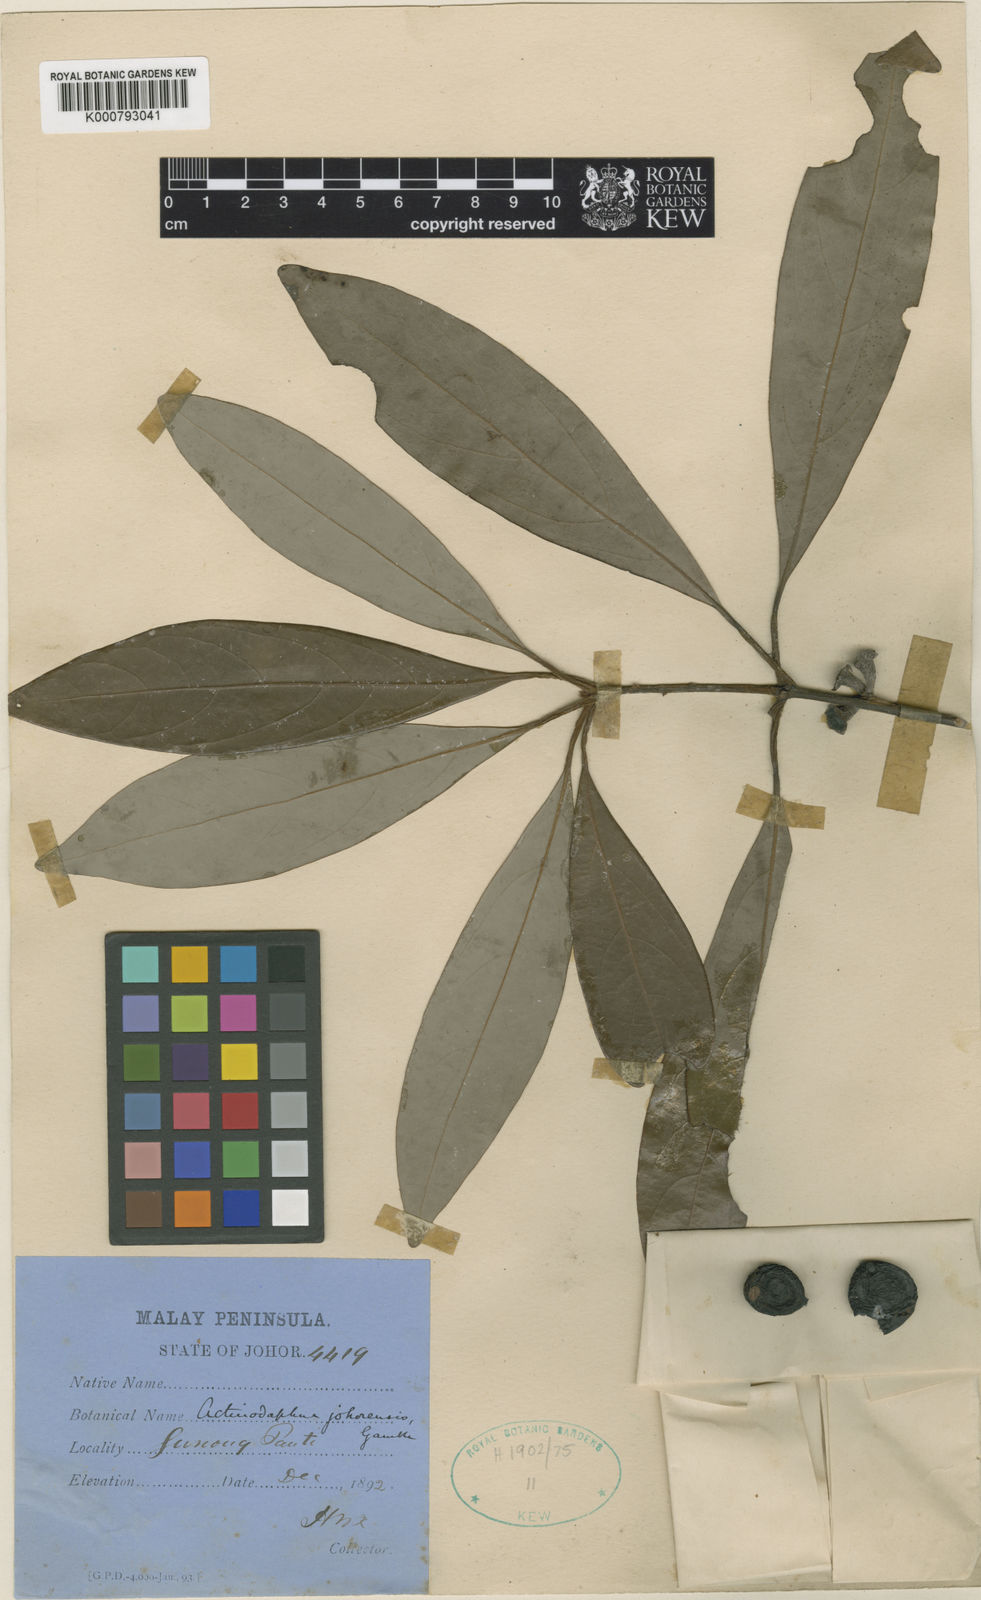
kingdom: Plantae
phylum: Tracheophyta
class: Magnoliopsida
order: Laurales
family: Lauraceae
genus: Actinodaphne
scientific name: Actinodaphne johorensis
